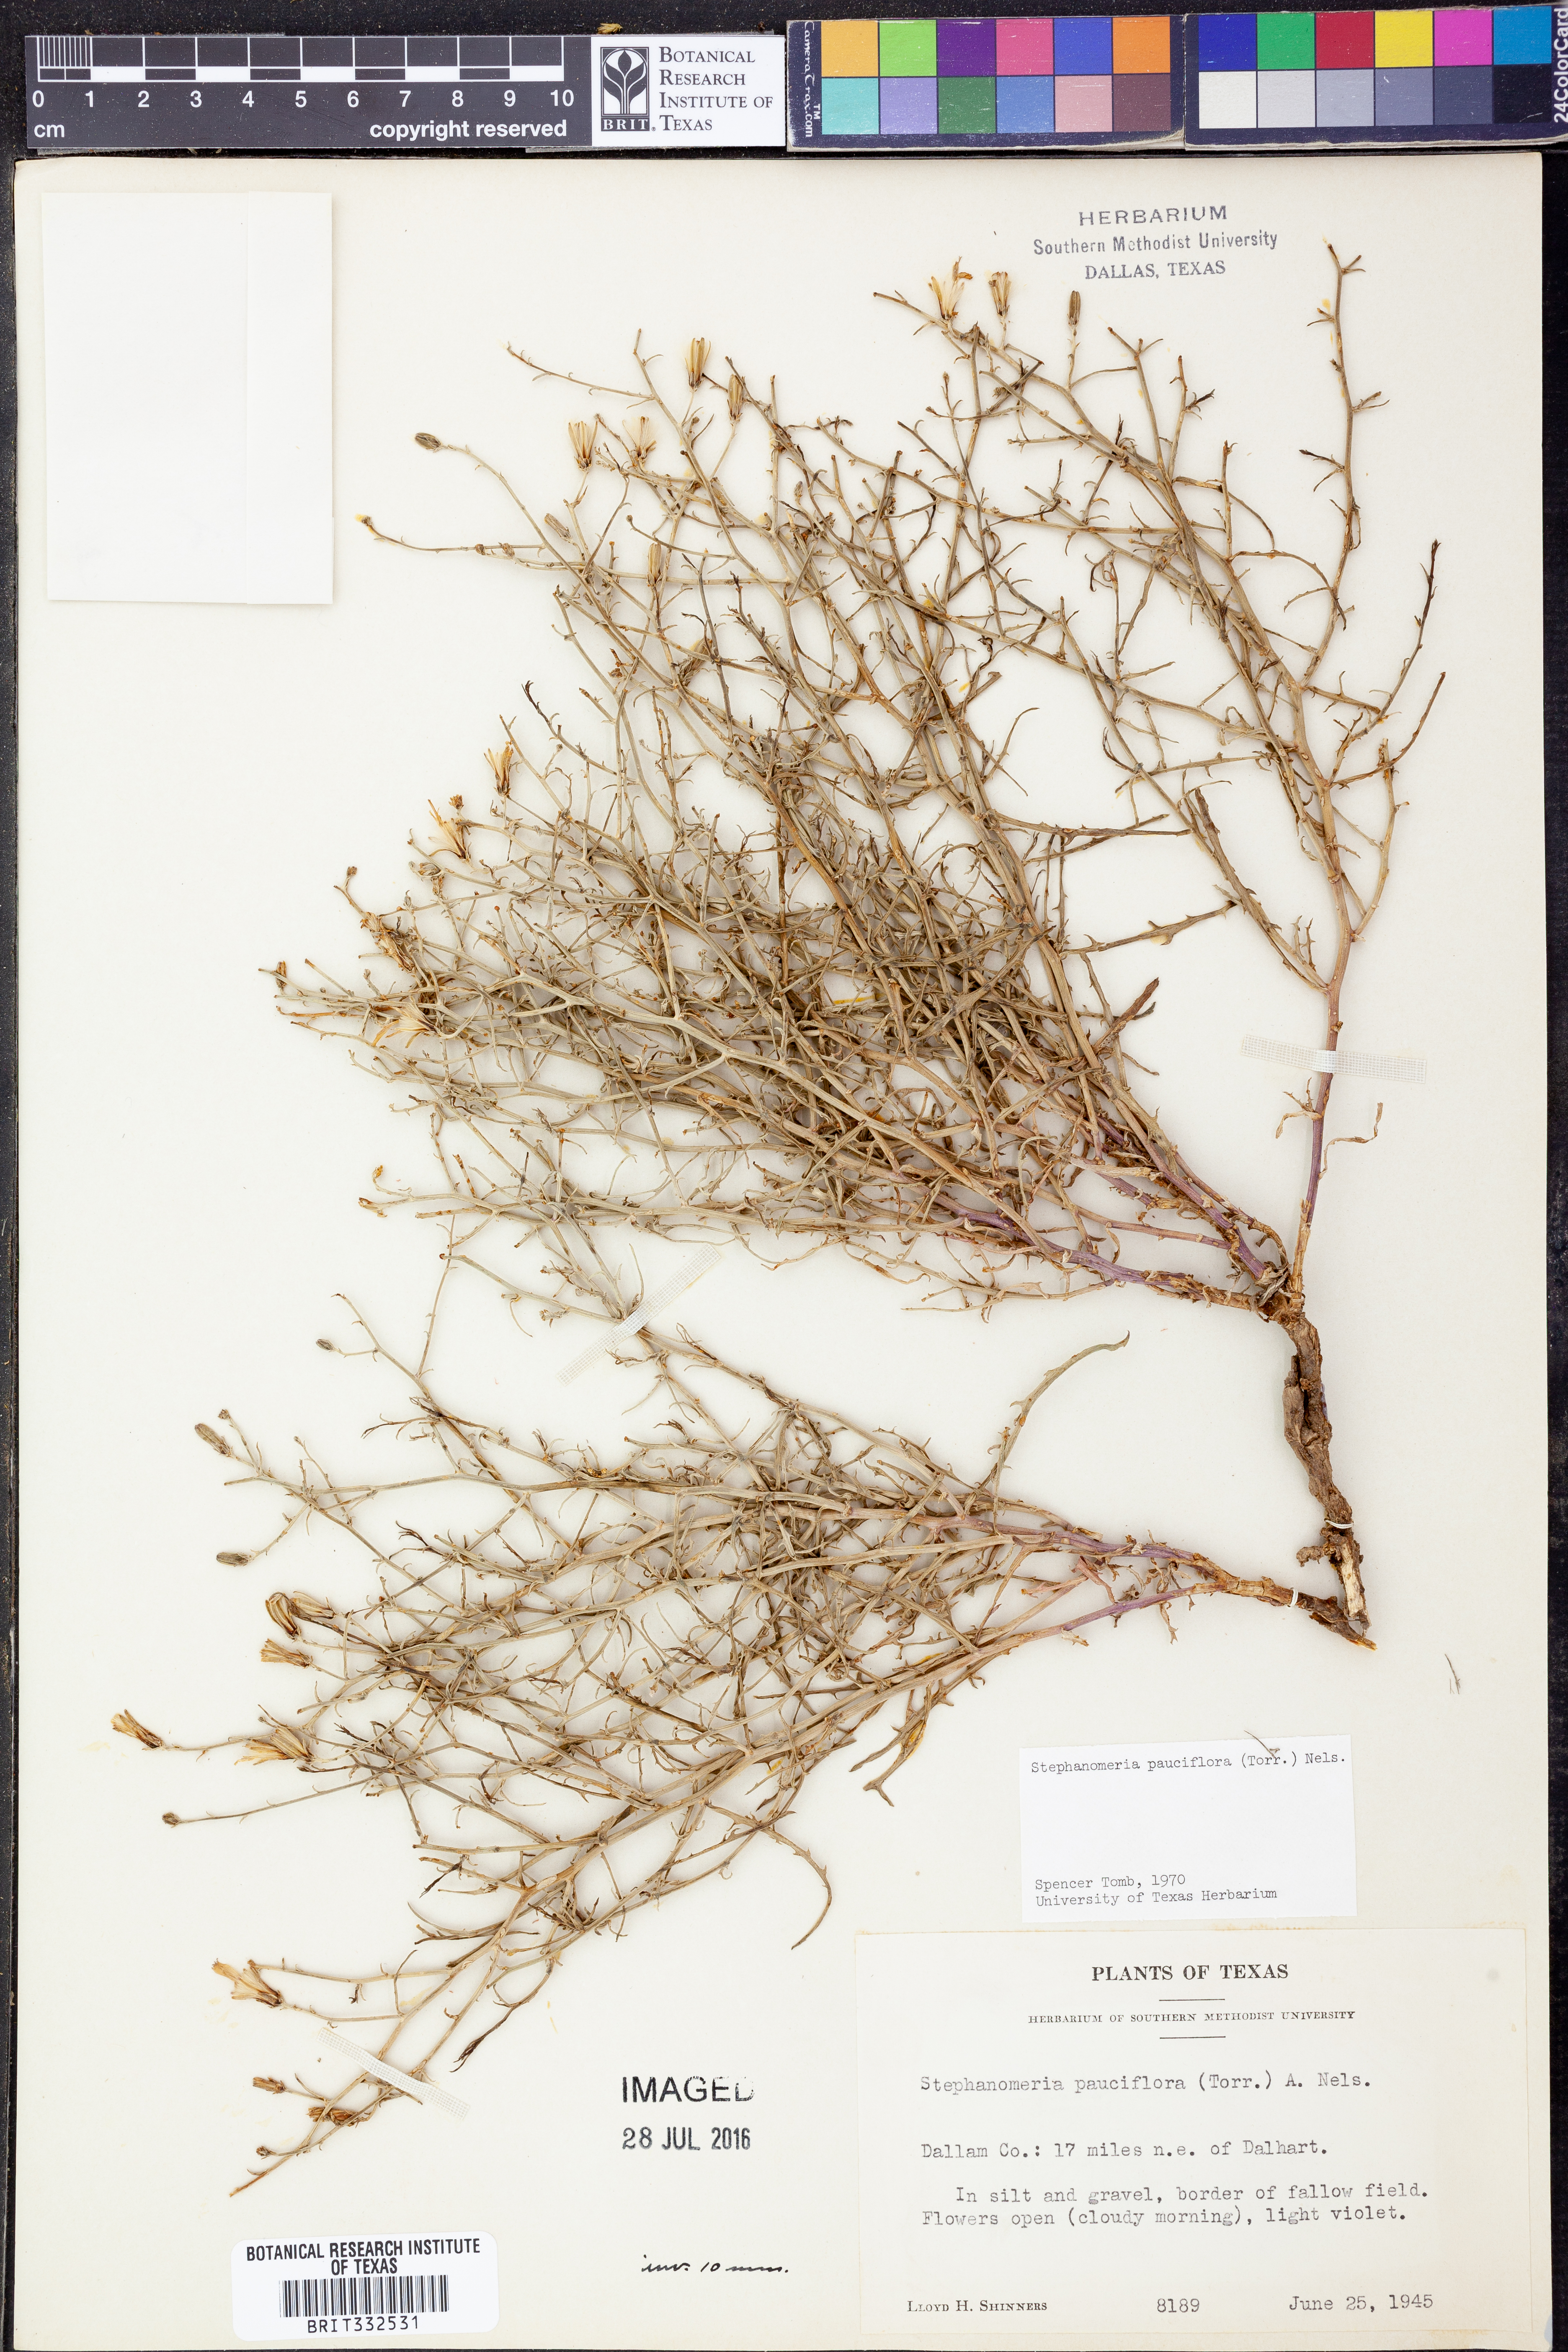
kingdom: Plantae
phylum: Tracheophyta
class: Magnoliopsida
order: Asterales
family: Asteraceae
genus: Stephanomeria
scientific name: Stephanomeria pauciflora
